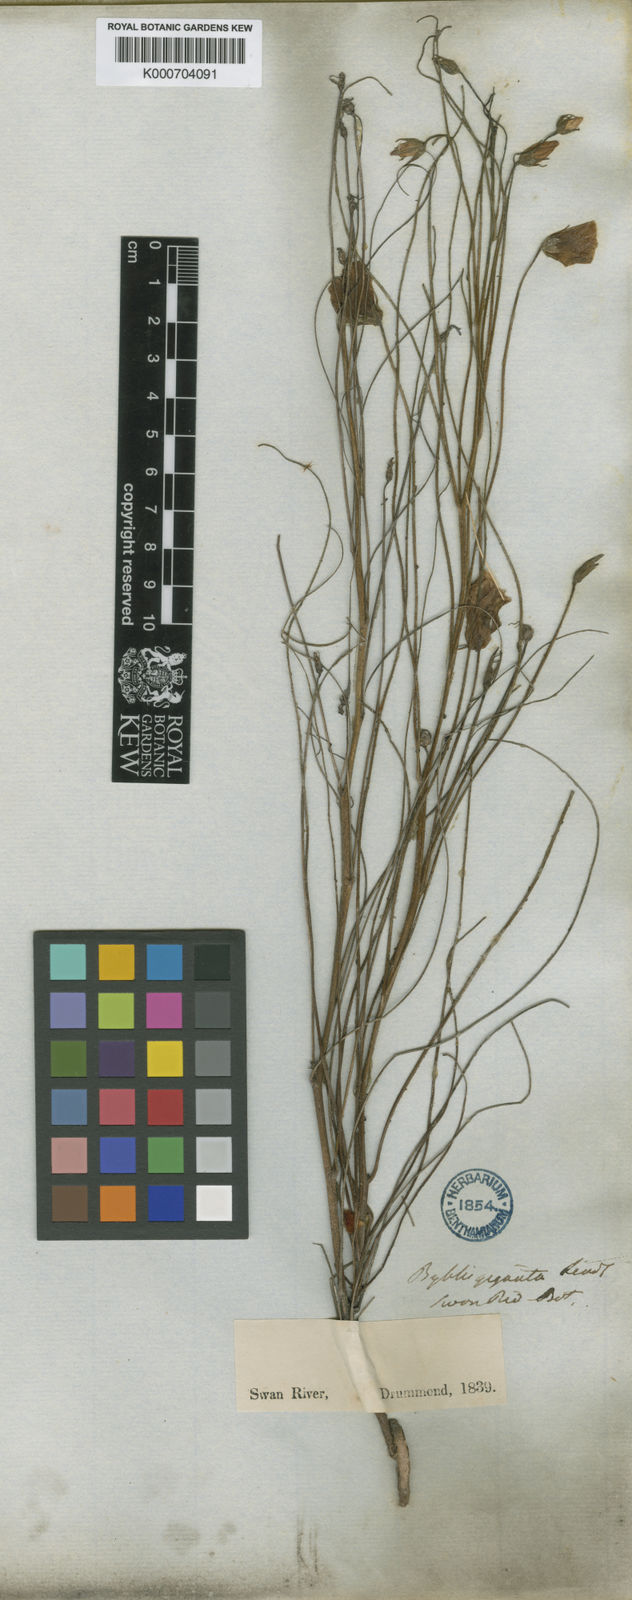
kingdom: Plantae
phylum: Tracheophyta
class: Magnoliopsida
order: Lamiales
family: Byblidaceae
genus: Byblis
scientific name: Byblis gigantea
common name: Rainbowplant
